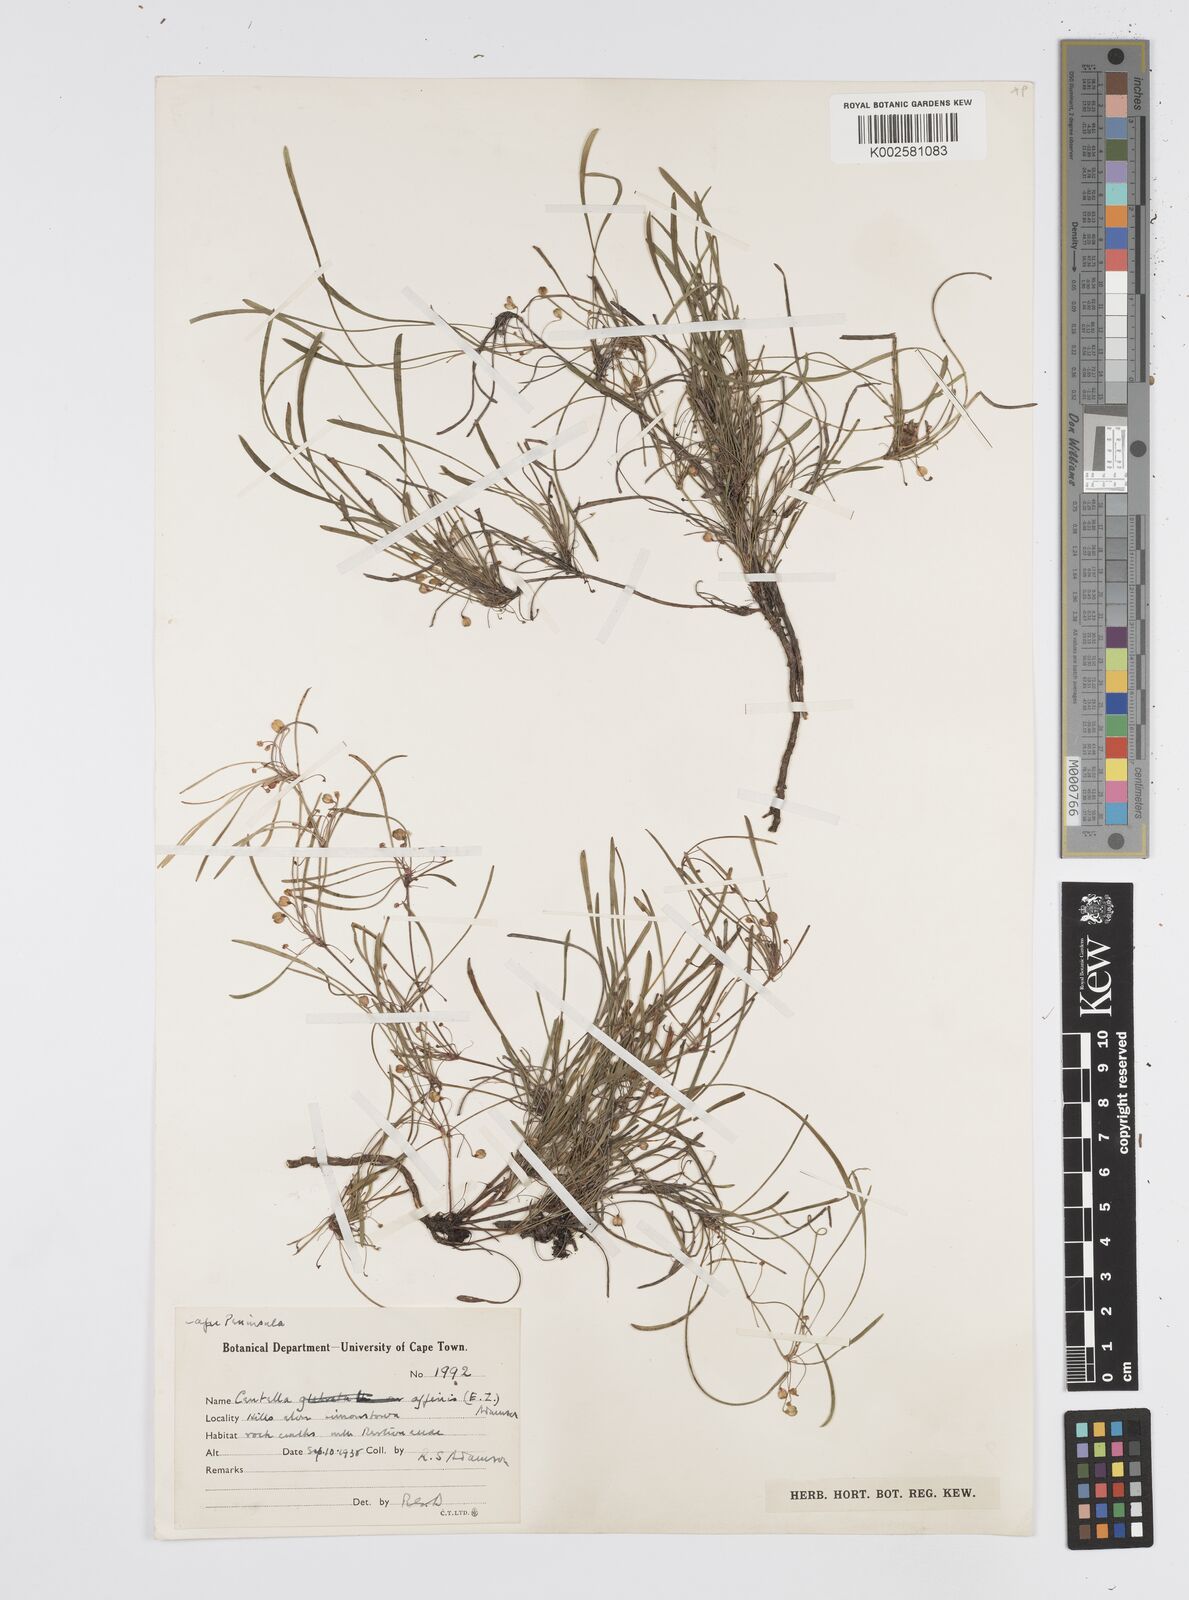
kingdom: Plantae
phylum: Tracheophyta
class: Magnoliopsida
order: Apiales
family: Apiaceae
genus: Centella
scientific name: Centella affinis
